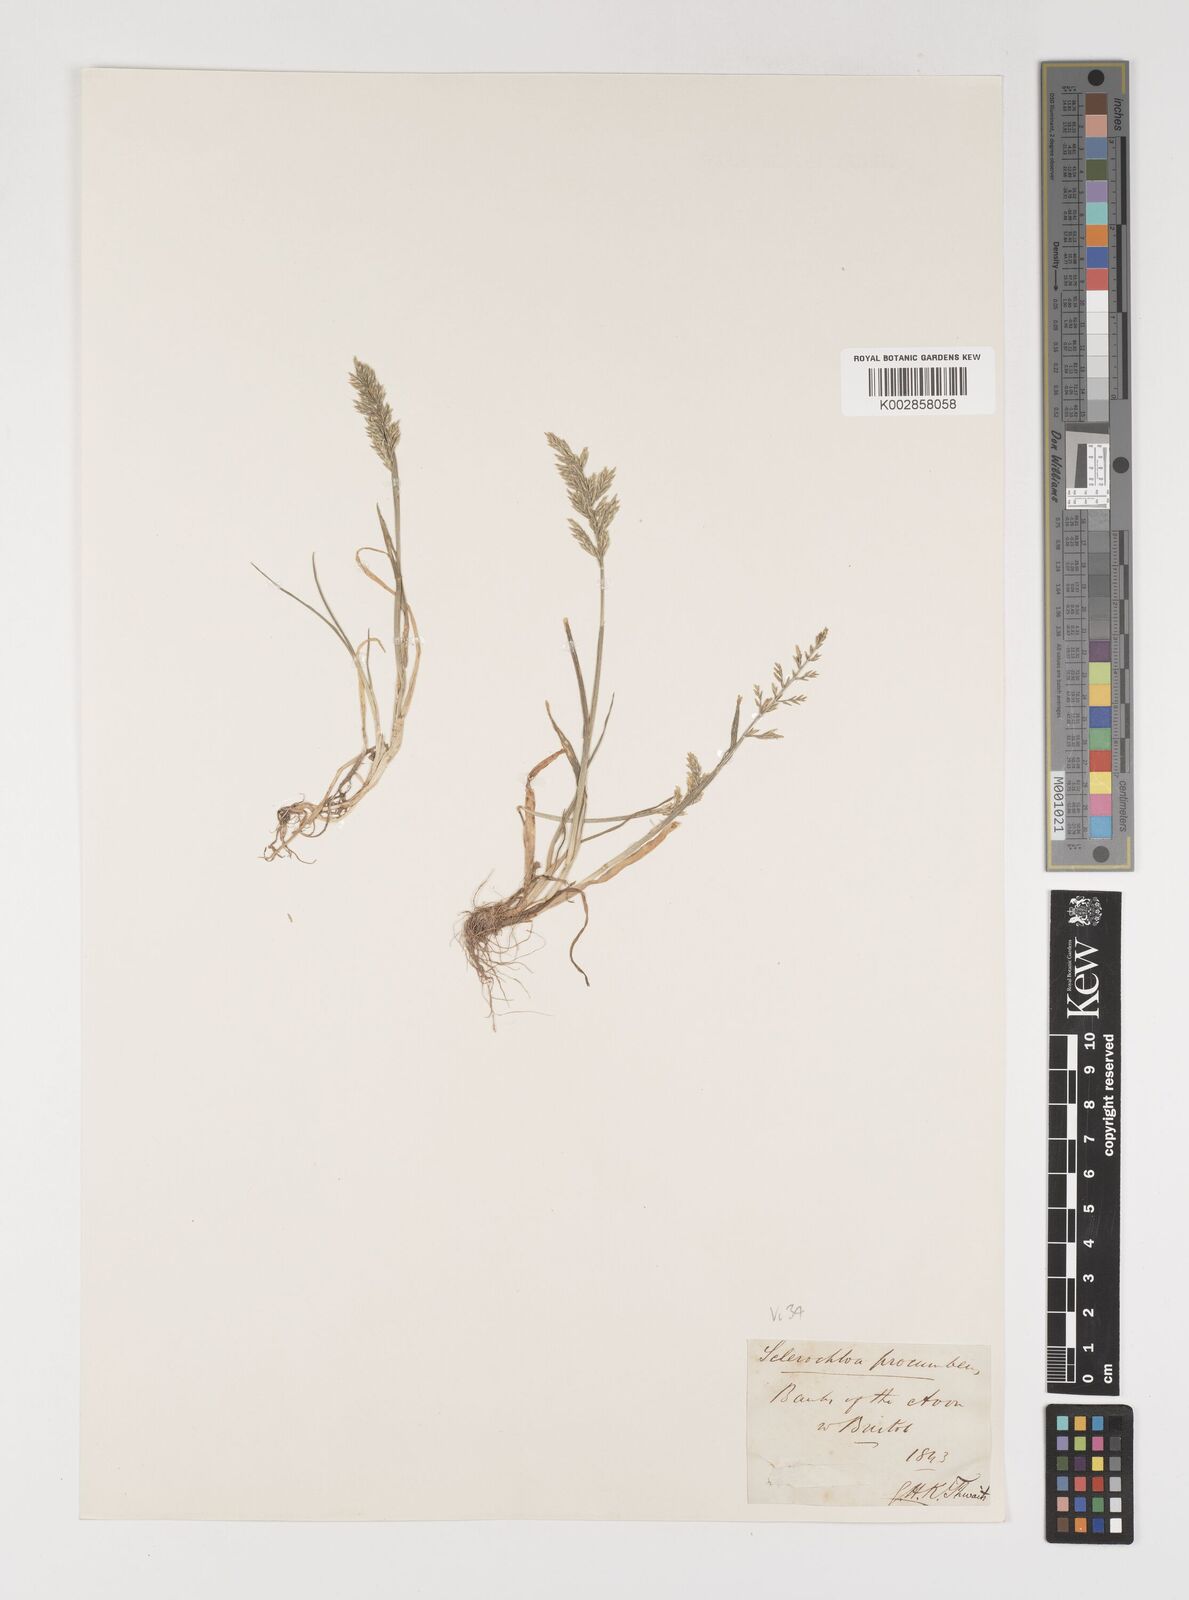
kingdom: Plantae
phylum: Tracheophyta
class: Liliopsida
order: Poales
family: Poaceae
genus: Puccinellia
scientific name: Puccinellia rupestris
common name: Stiff saltmarsh-grass
